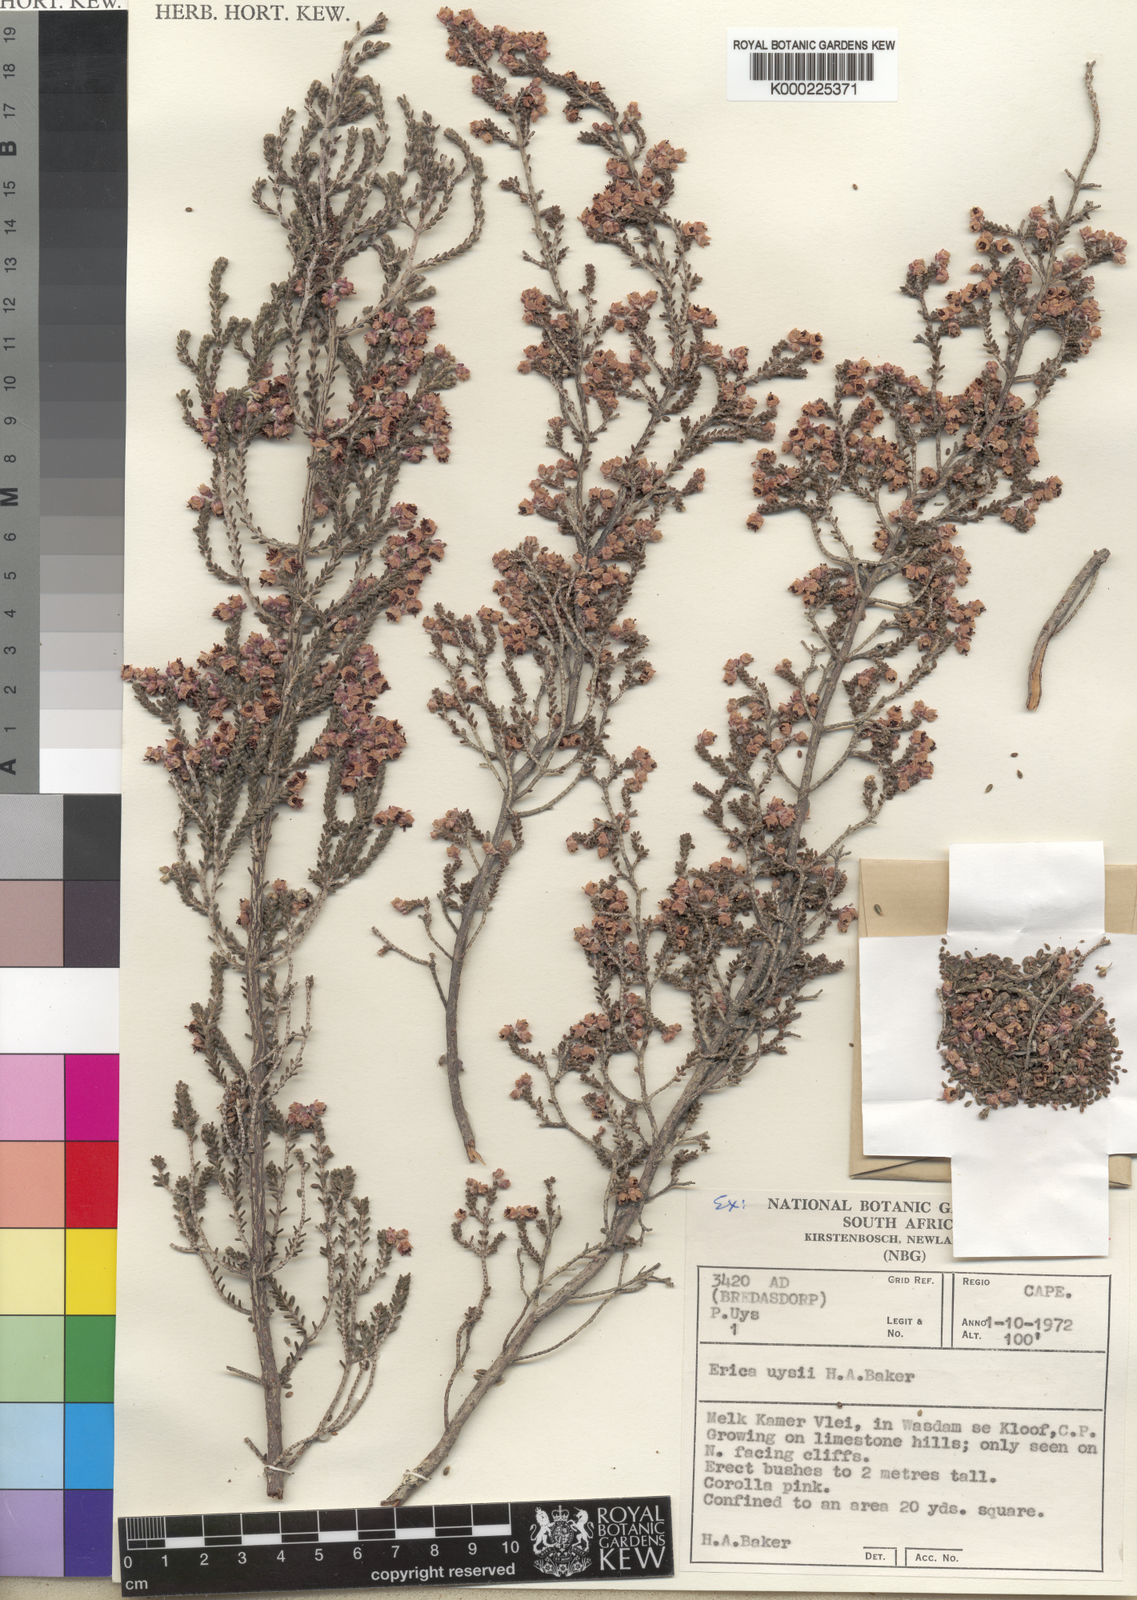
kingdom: Plantae
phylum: Tracheophyta
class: Magnoliopsida
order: Ericales
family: Ericaceae
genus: Erica
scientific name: Erica uysii
